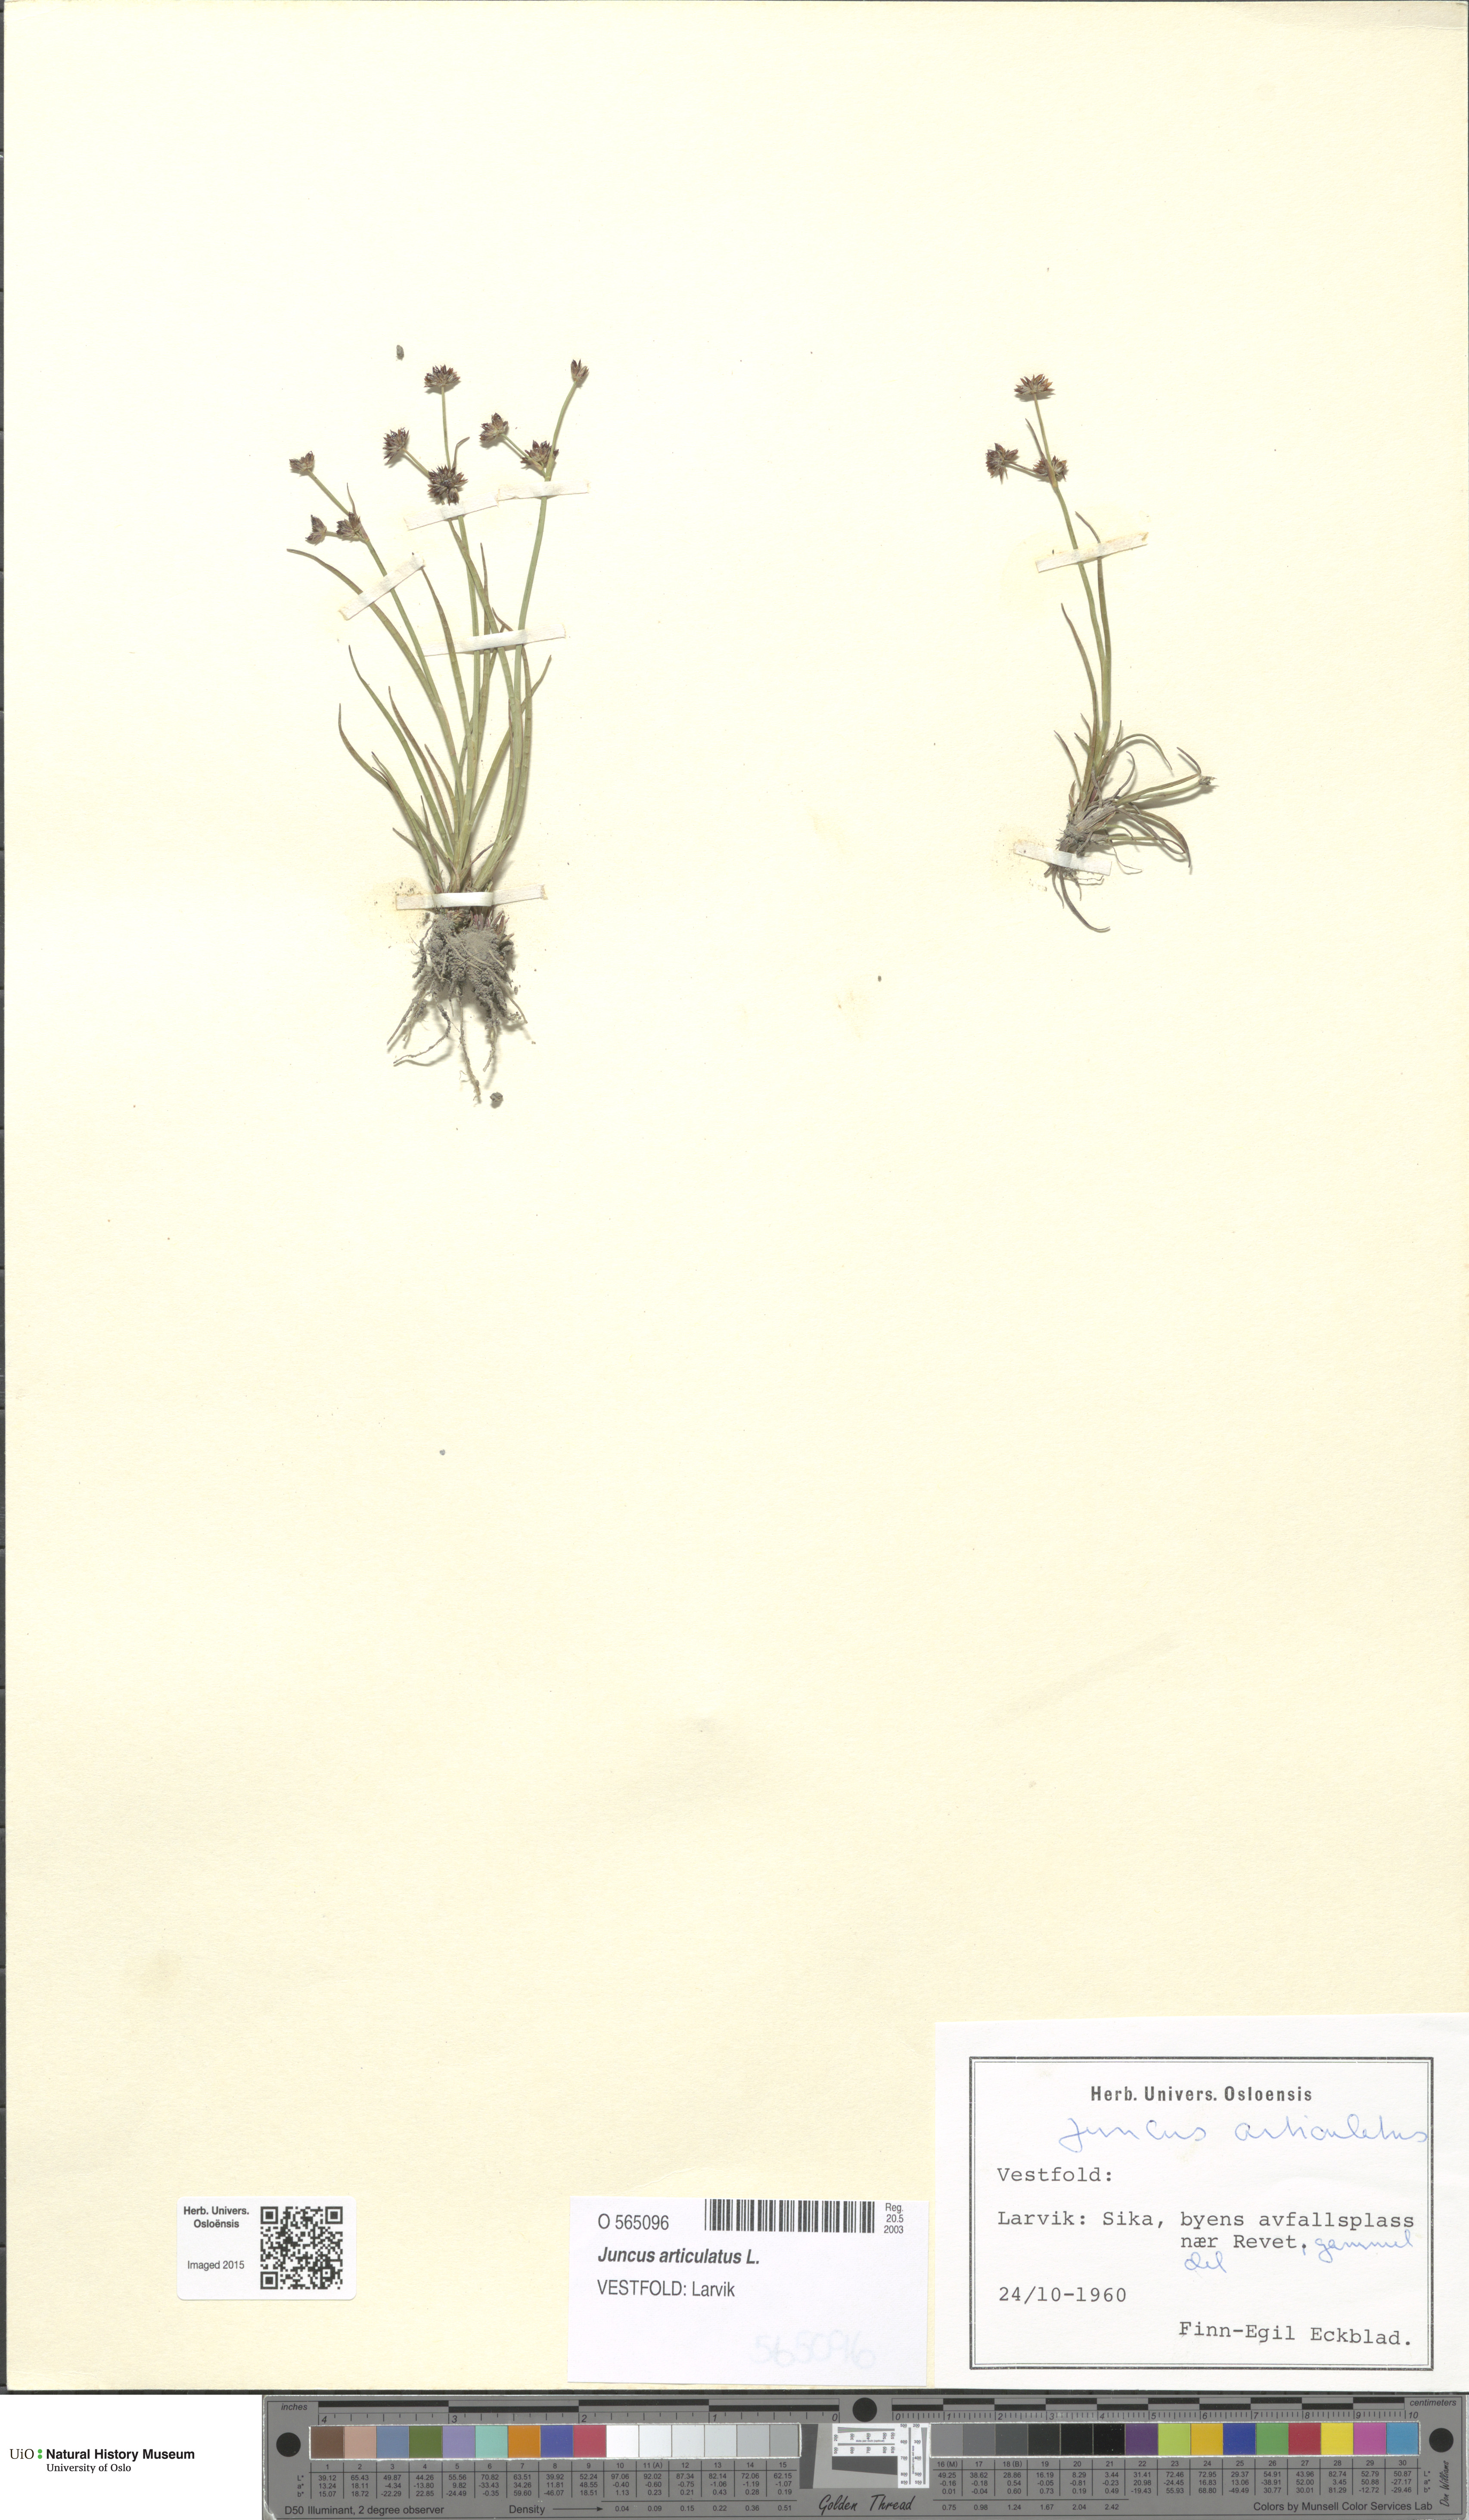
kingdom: Plantae
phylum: Tracheophyta
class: Liliopsida
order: Poales
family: Juncaceae
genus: Juncus
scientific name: Juncus articulatus
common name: Jointed rush
